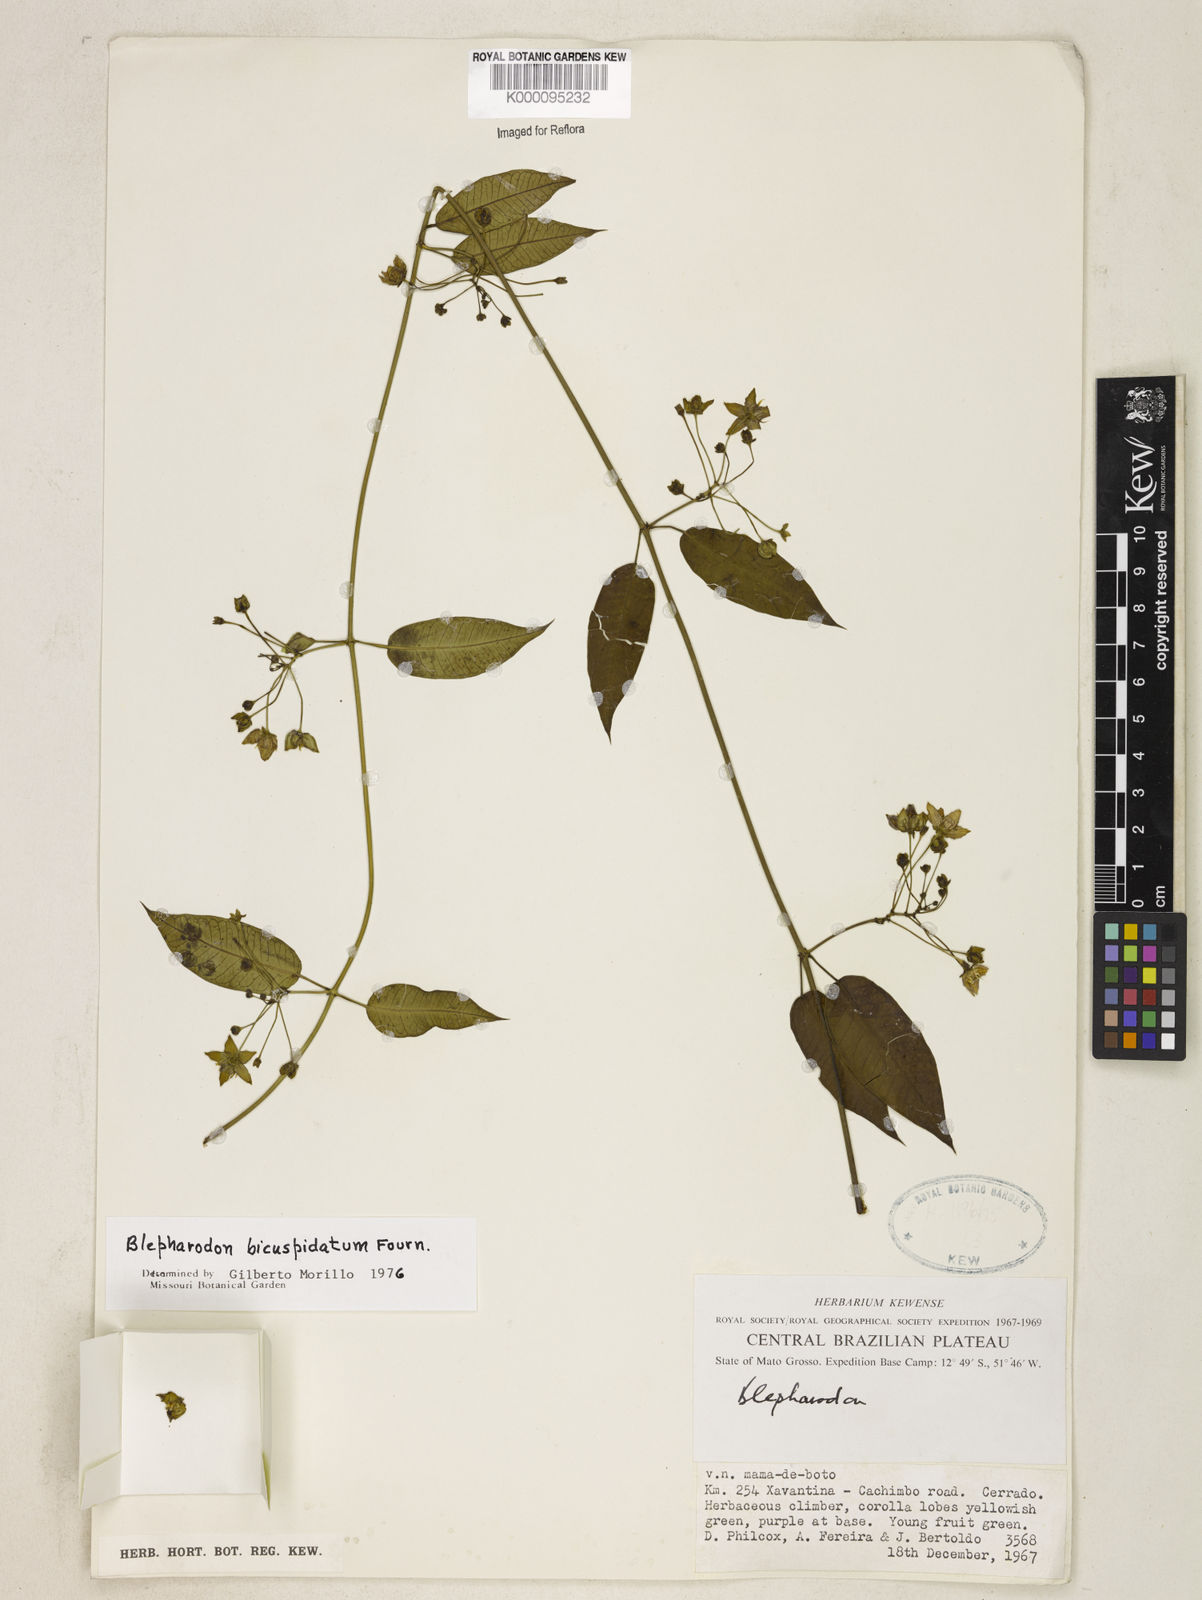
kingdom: Plantae
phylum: Tracheophyta
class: Magnoliopsida
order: Gentianales
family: Apocynaceae
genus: Blepharodon
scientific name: Blepharodon bicuspidatum
